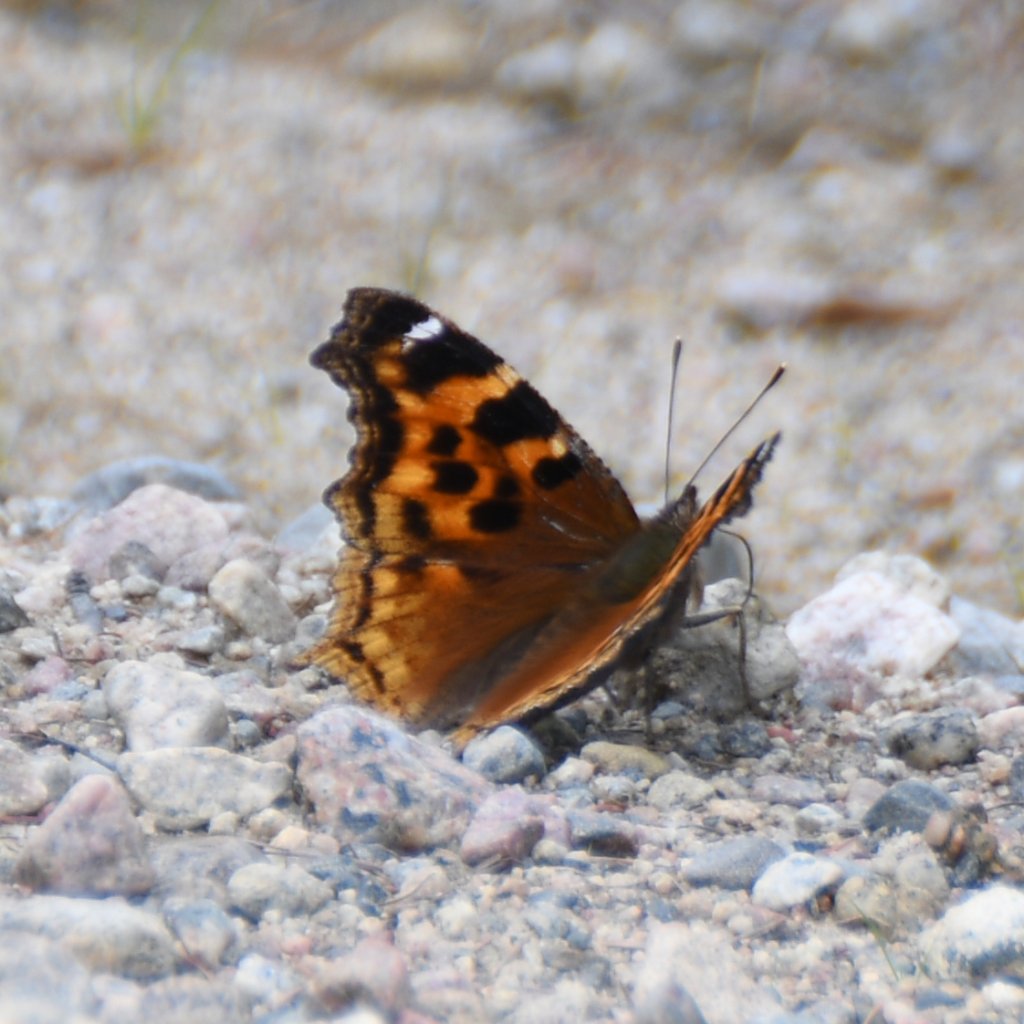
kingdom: Animalia
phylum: Arthropoda
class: Insecta
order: Lepidoptera
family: Nymphalidae
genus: Polygonia
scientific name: Polygonia vaualbum
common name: Compton Tortoiseshell
